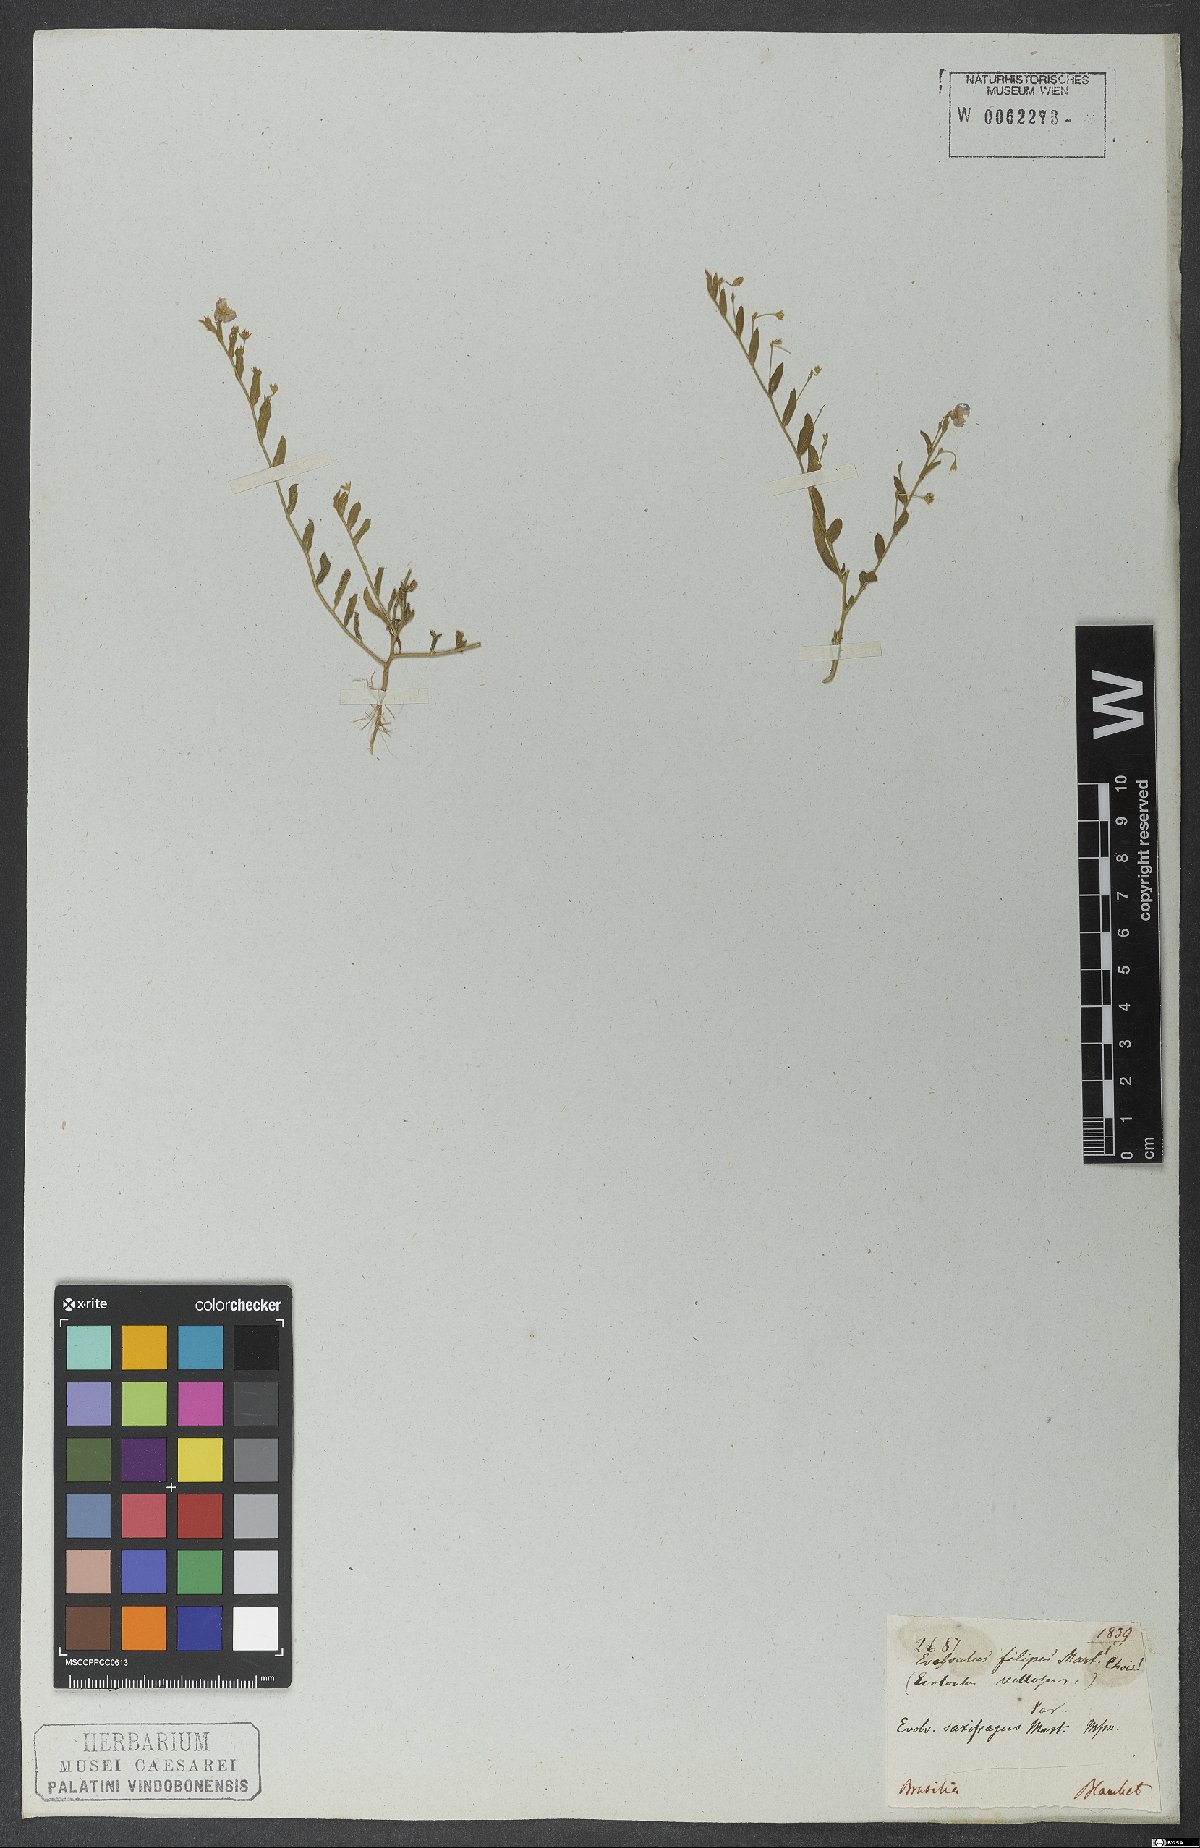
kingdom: Plantae
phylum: Tracheophyta
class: Magnoliopsida
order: Solanales
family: Convolvulaceae
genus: Evolvulus
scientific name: Evolvulus saxifragus
